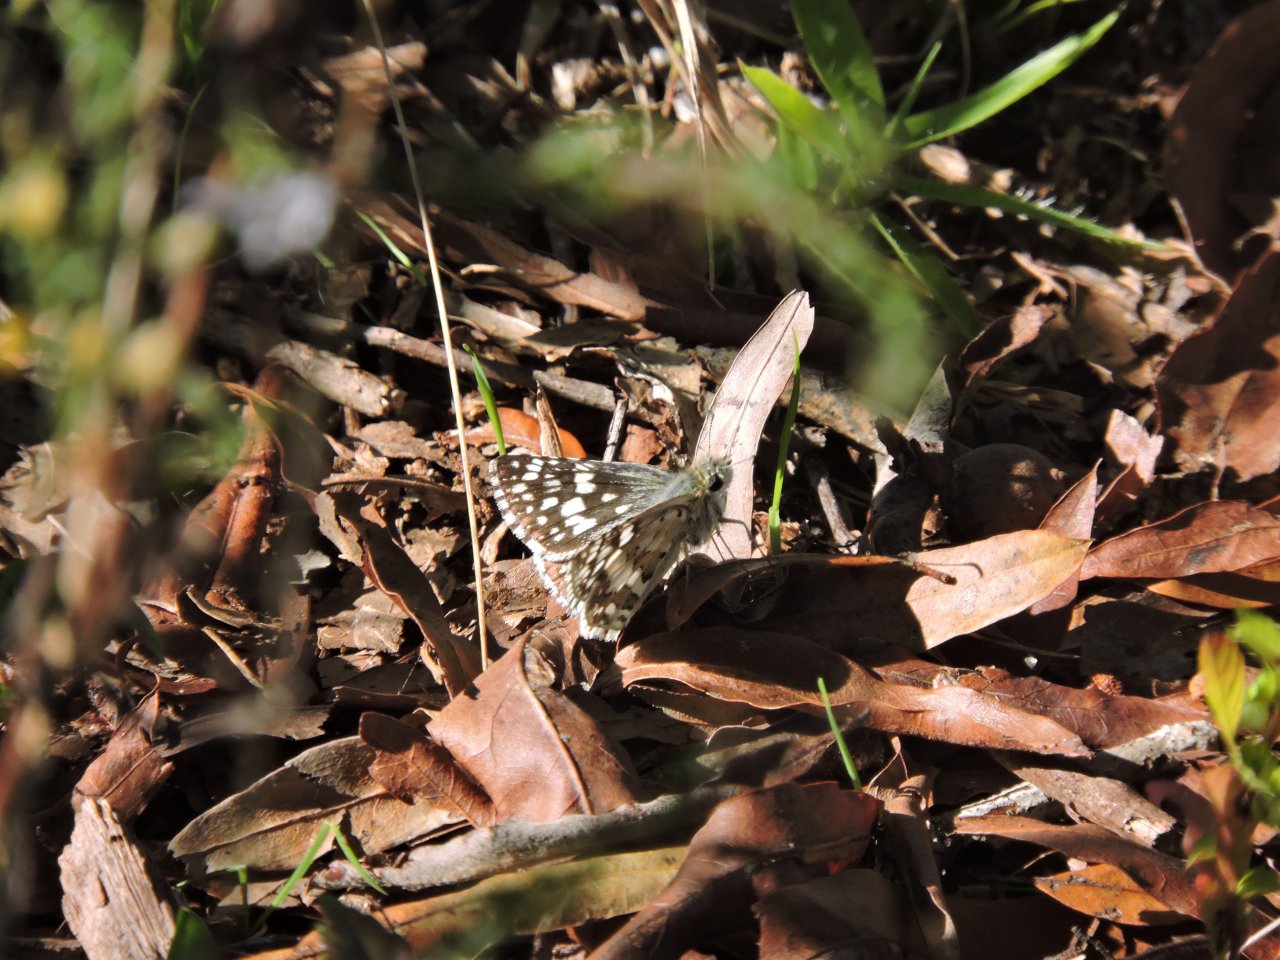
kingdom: Animalia
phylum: Arthropoda
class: Insecta
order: Lepidoptera
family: Hesperiidae
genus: Pyrgus
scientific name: Pyrgus
